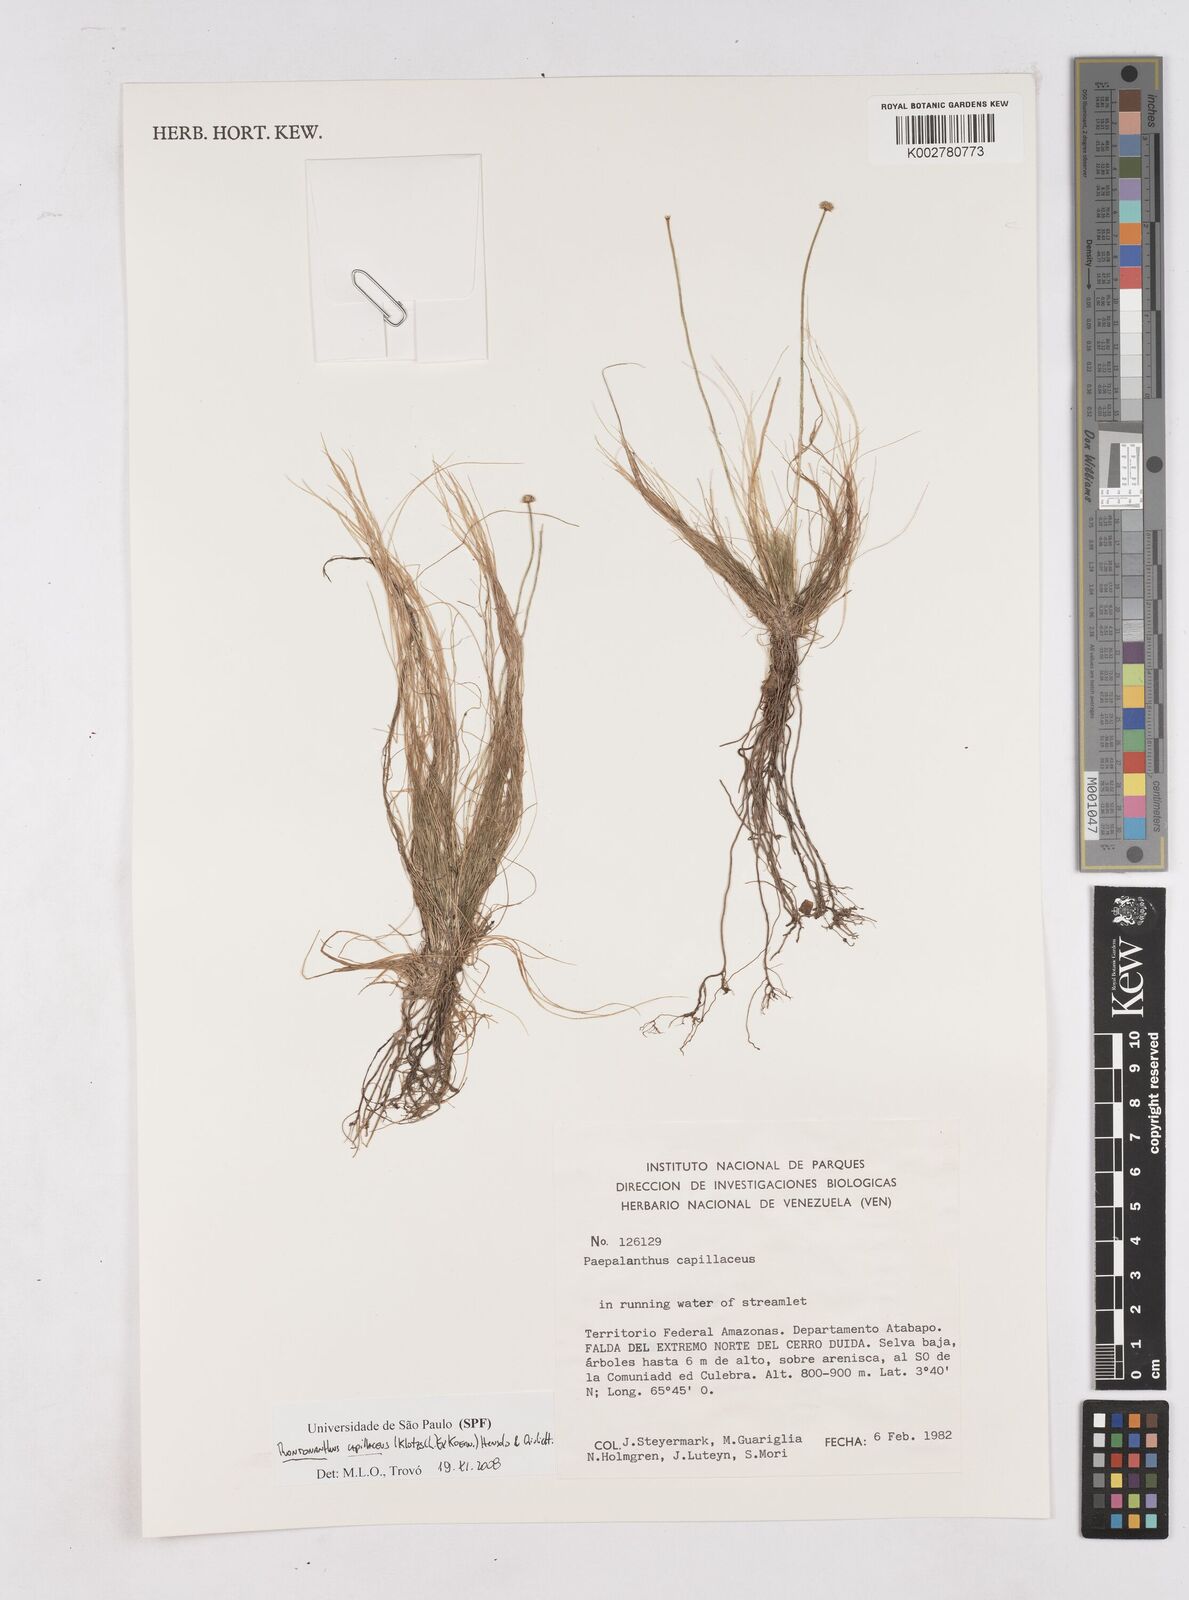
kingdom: Plantae
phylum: Tracheophyta
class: Liliopsida
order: Poales
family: Eriocaulaceae
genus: Rondonanthus
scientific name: Rondonanthus capillaceus
